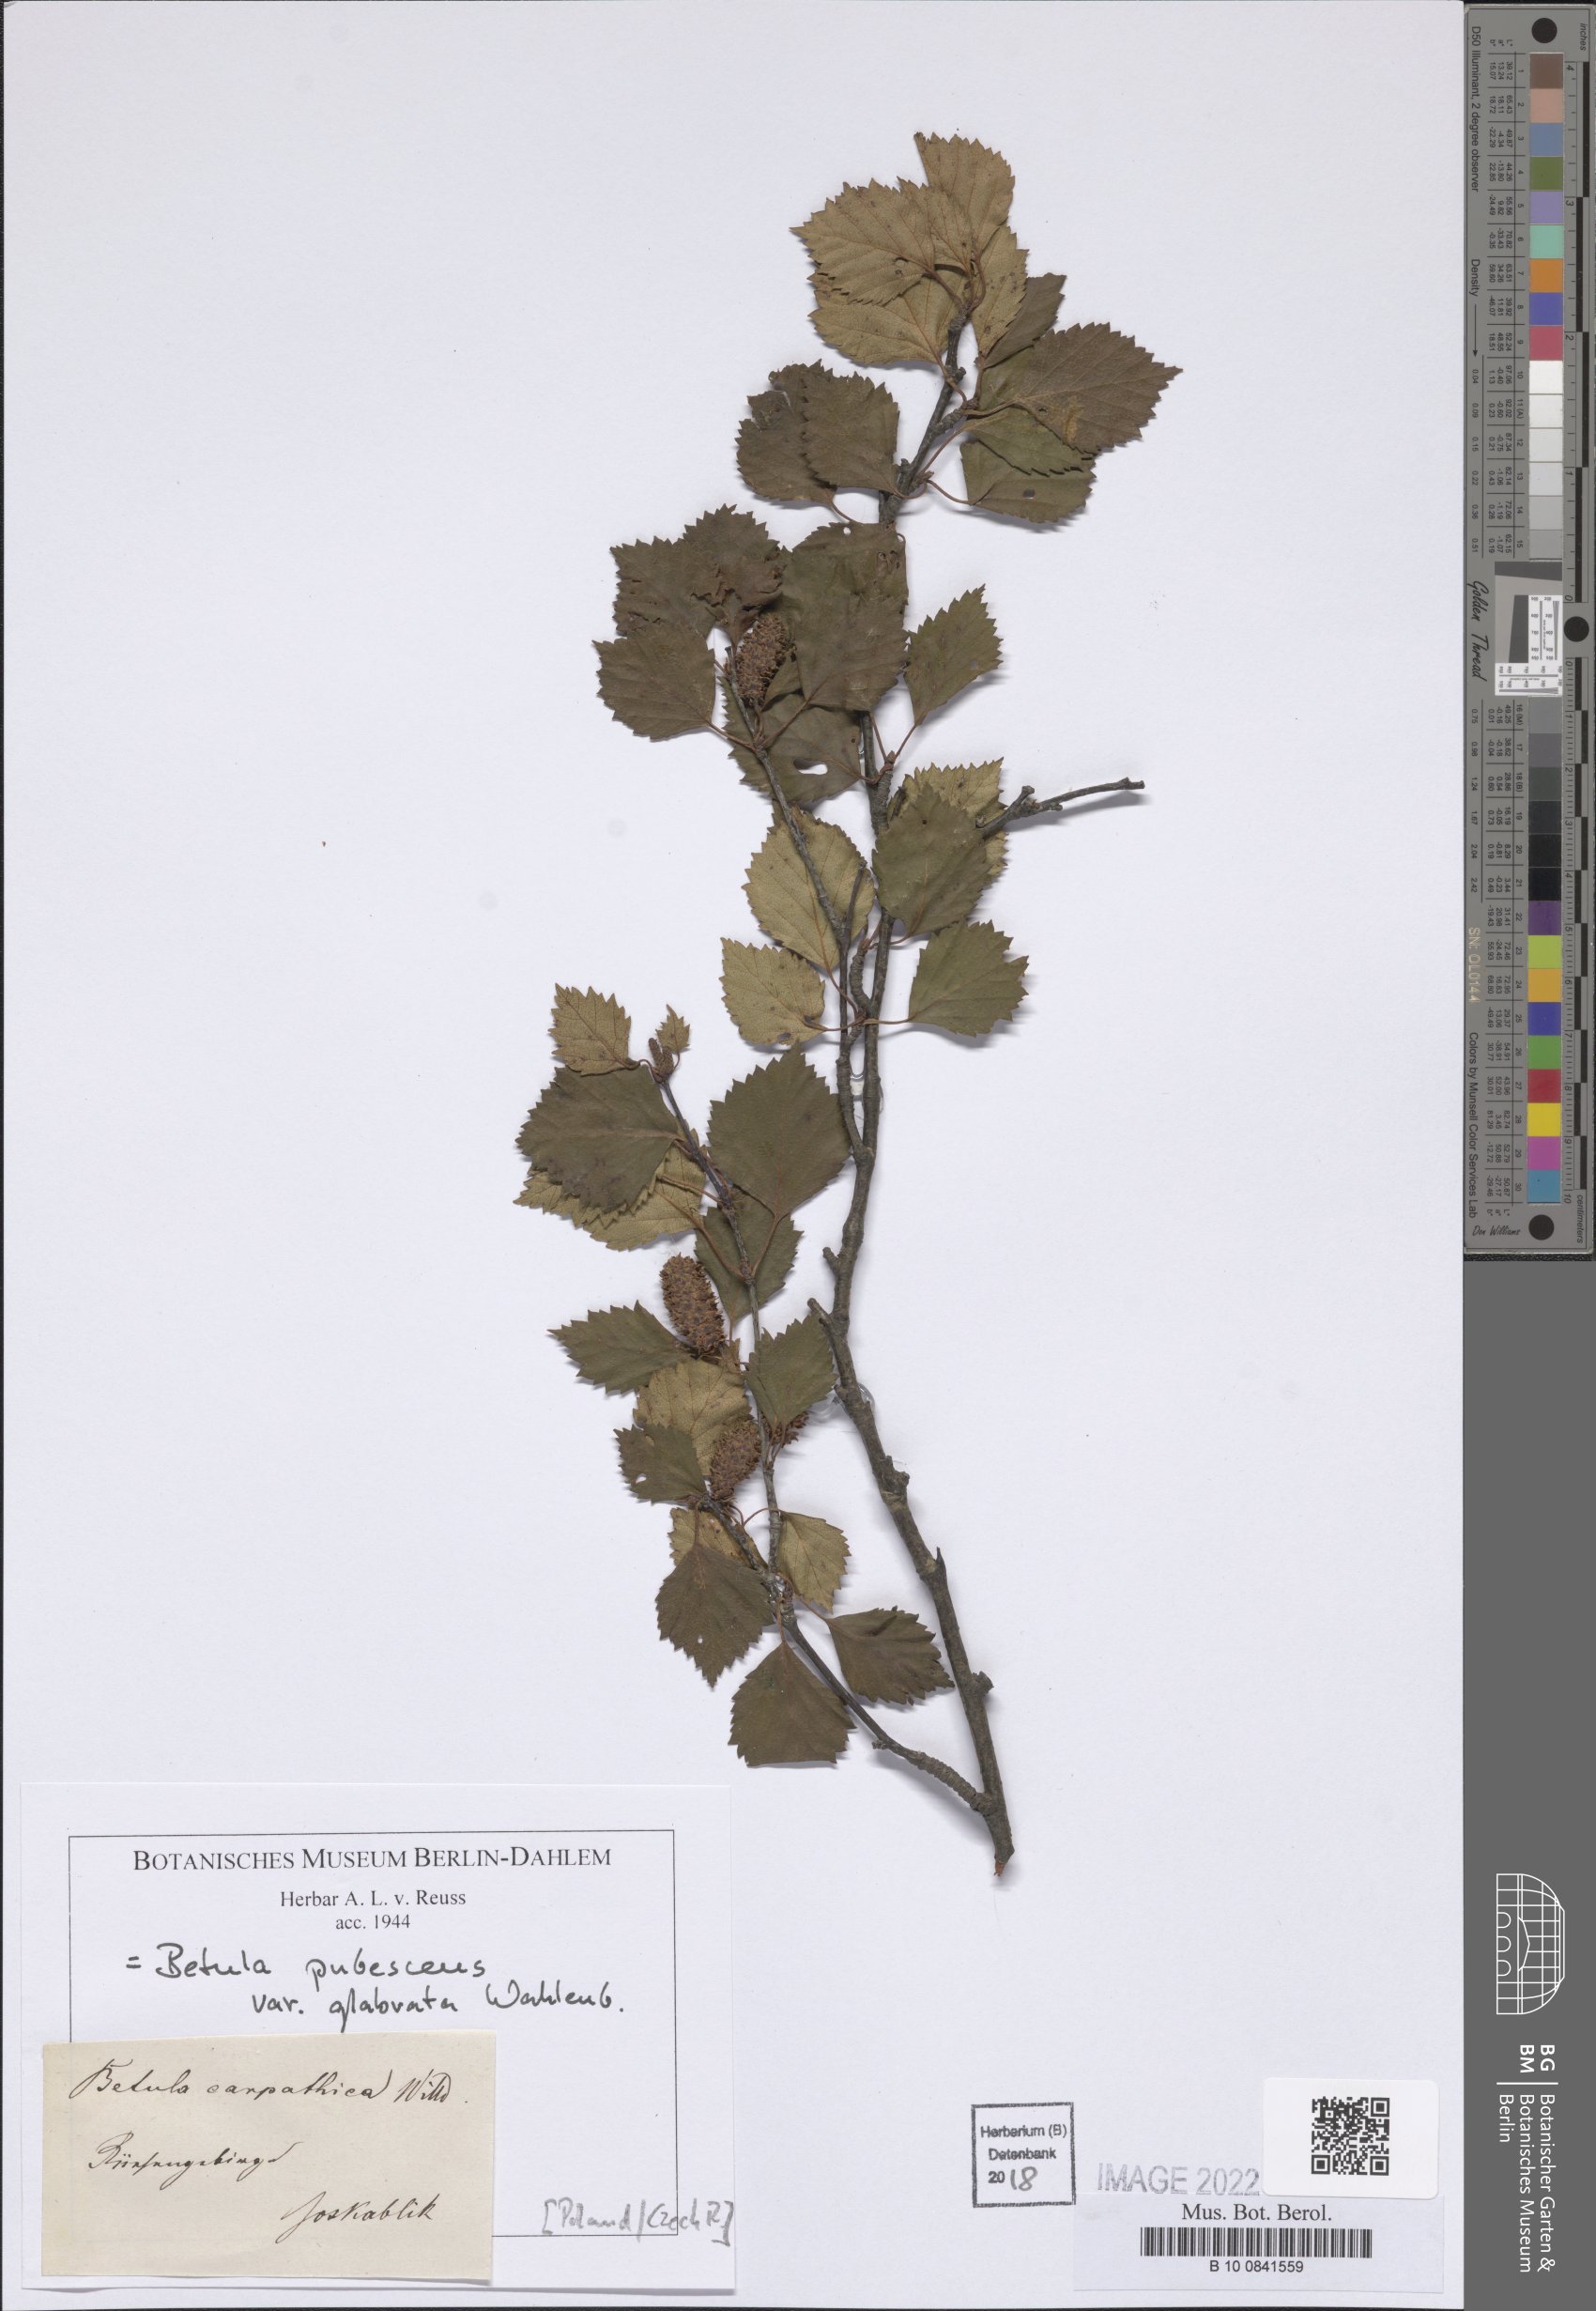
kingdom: Plantae
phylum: Tracheophyta
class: Magnoliopsida
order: Fagales
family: Betulaceae
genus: Betula
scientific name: Betula pubescens
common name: Downy birch
